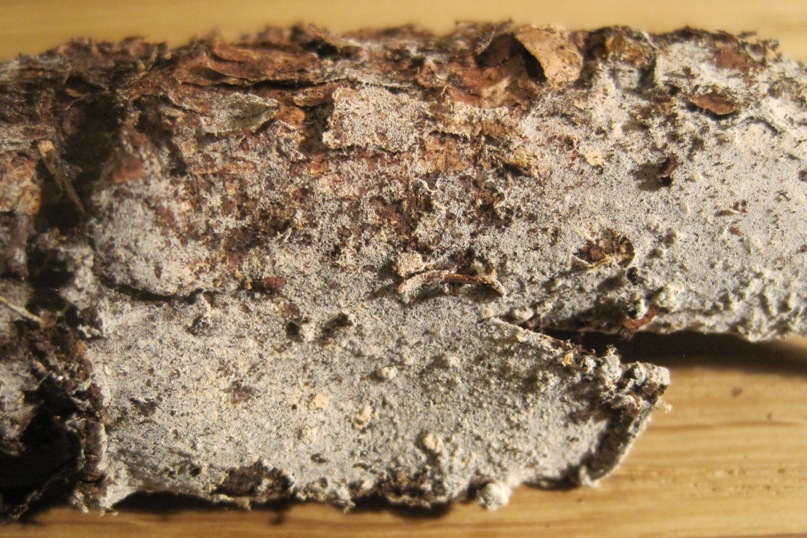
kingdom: Fungi
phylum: Basidiomycota
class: Agaricomycetes
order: Cantharellales
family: Botryobasidiaceae
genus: Botryobasidium
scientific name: Botryobasidium vagum
